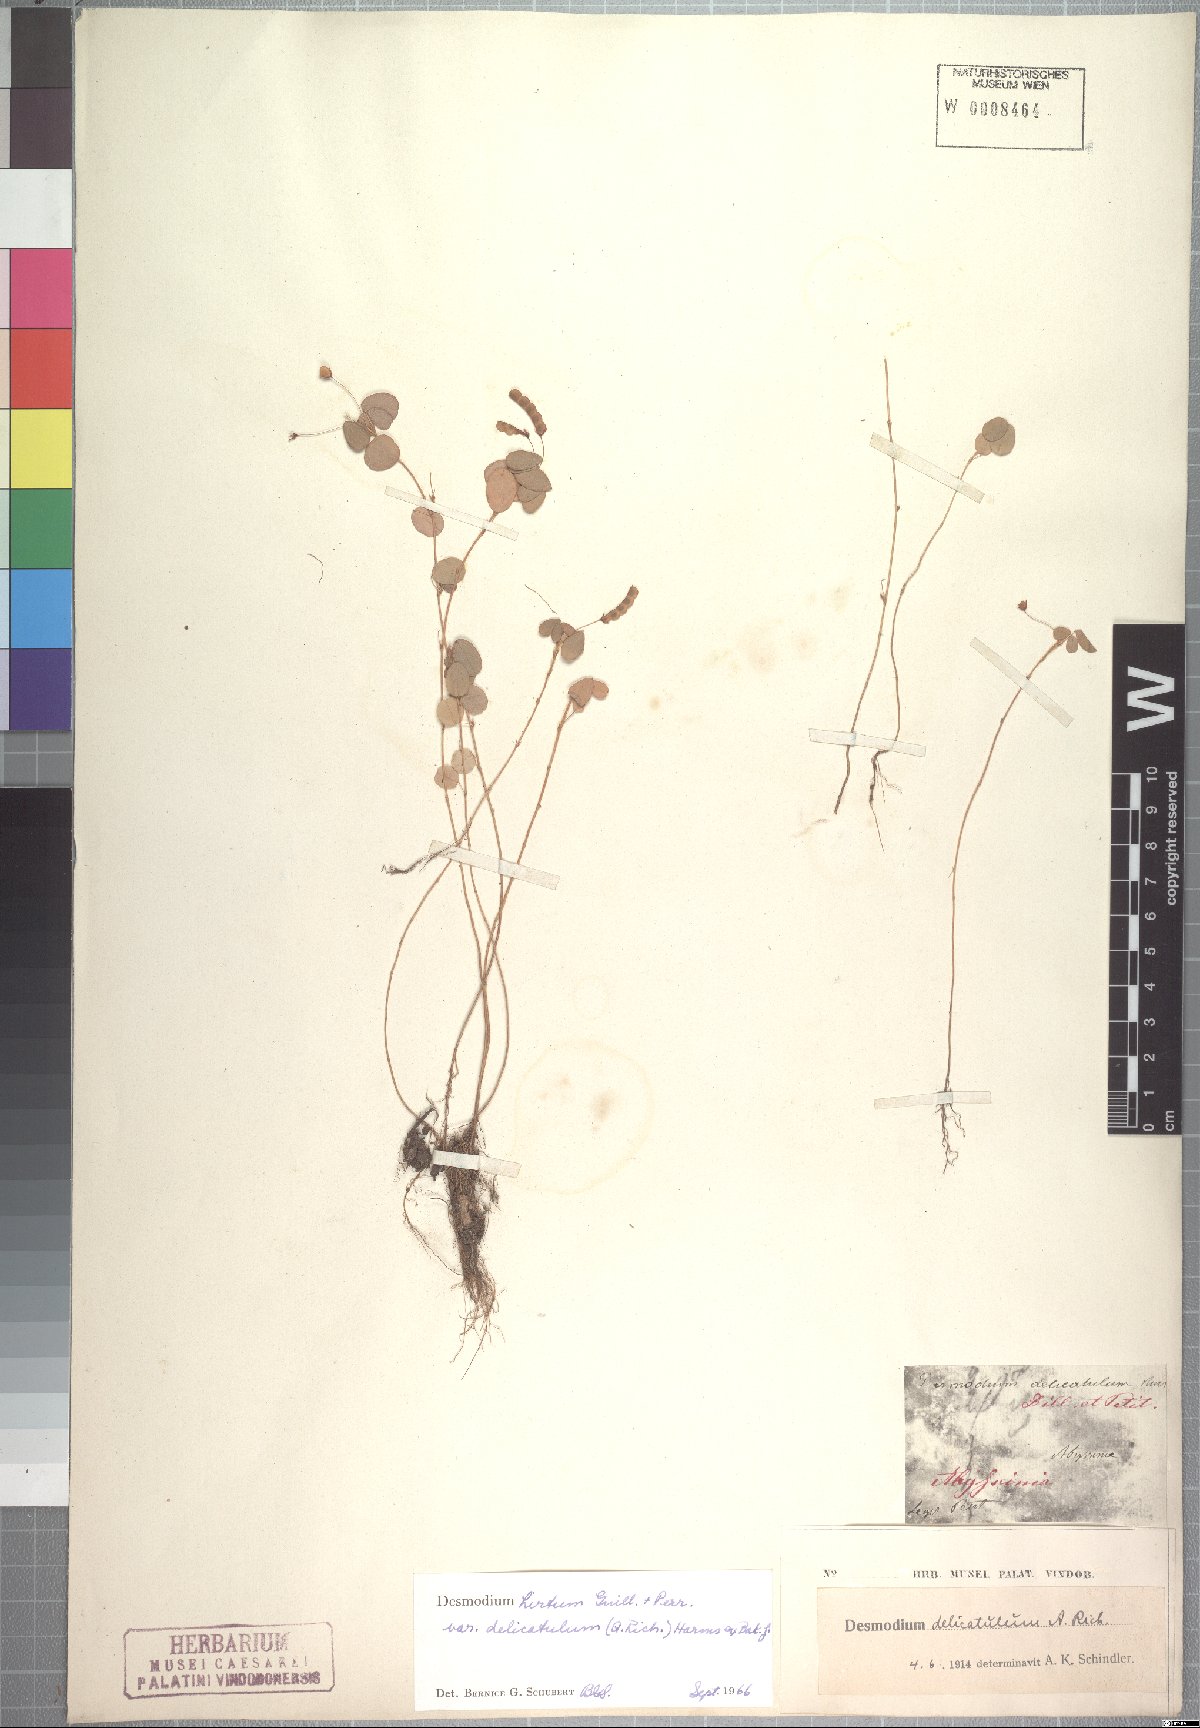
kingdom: Plantae
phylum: Tracheophyta
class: Magnoliopsida
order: Fabales
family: Fabaceae
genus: Grona
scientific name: Grona hirta
